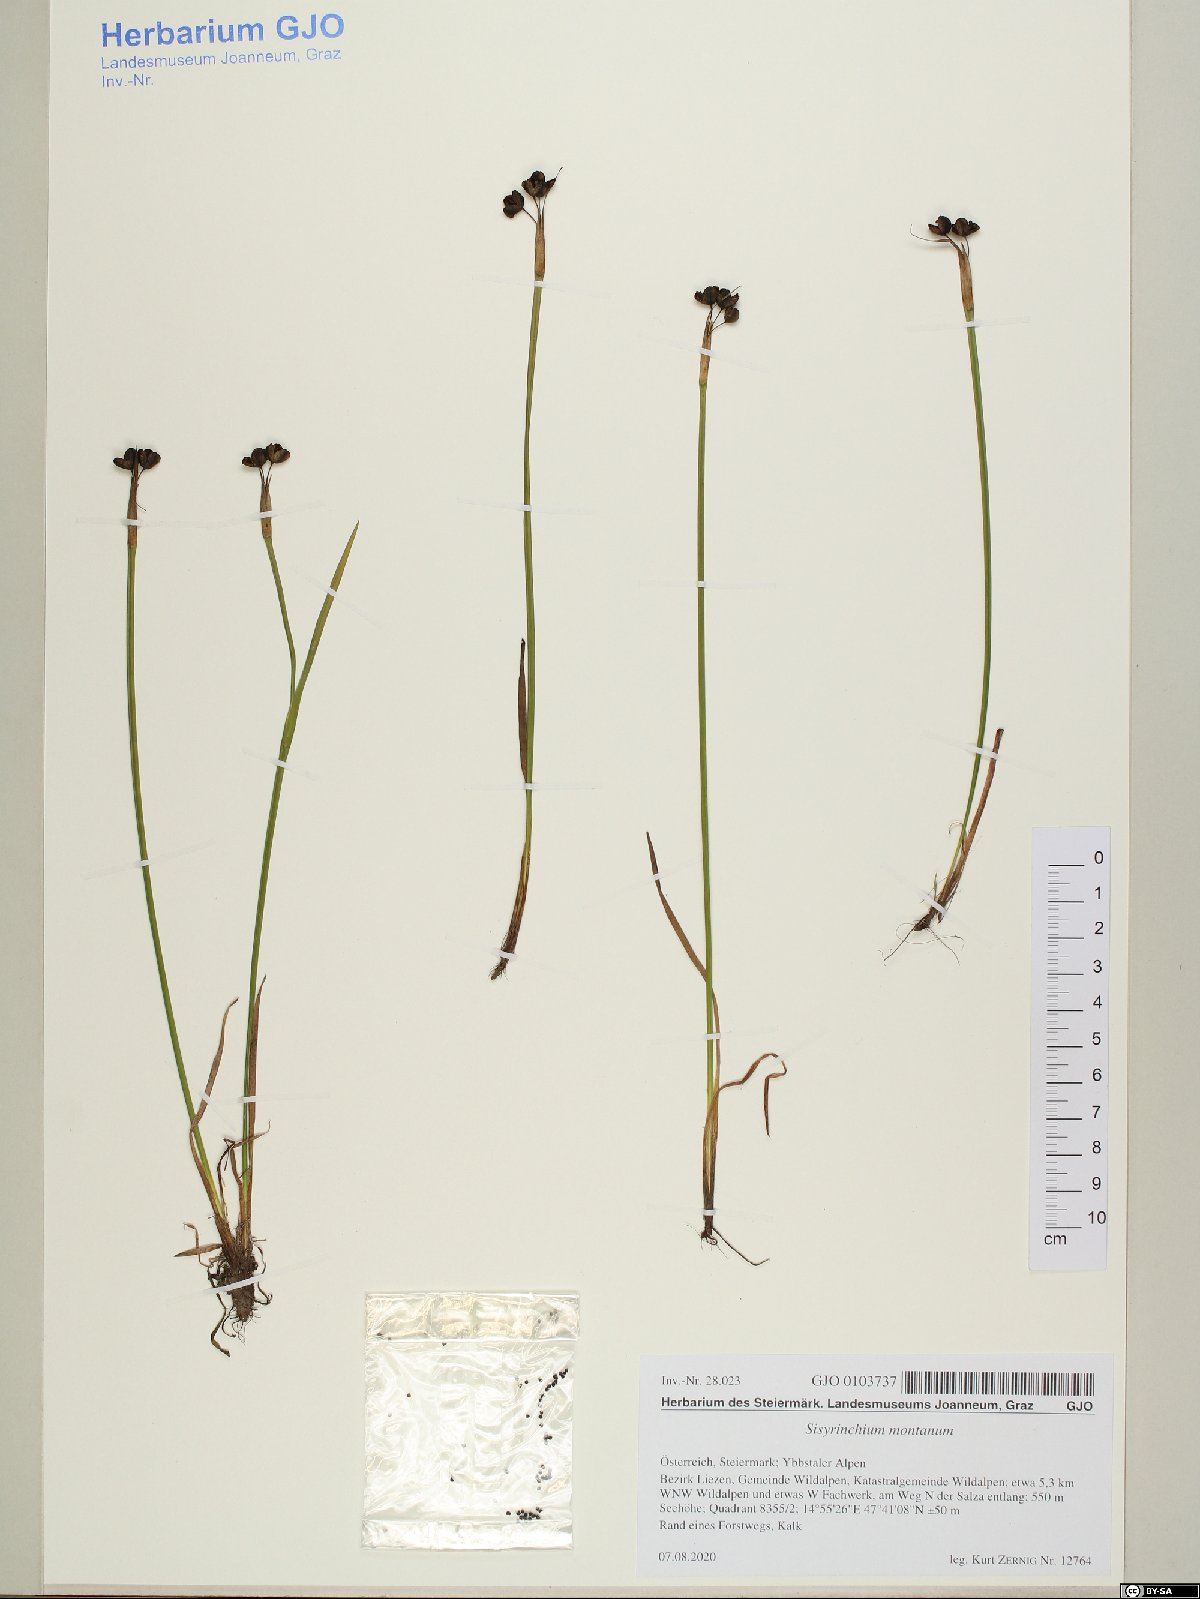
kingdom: Plantae
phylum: Tracheophyta
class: Liliopsida
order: Asparagales
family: Iridaceae
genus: Sisyrinchium
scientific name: Sisyrinchium montanum
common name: American blue-eyed-grass
